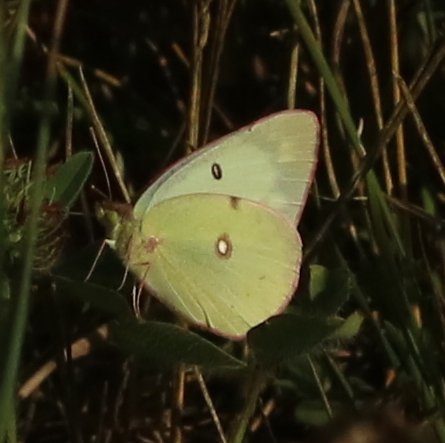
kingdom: Animalia
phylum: Arthropoda
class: Insecta
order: Lepidoptera
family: Pieridae
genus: Colias
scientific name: Colias philodice
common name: Clouded Sulphur
